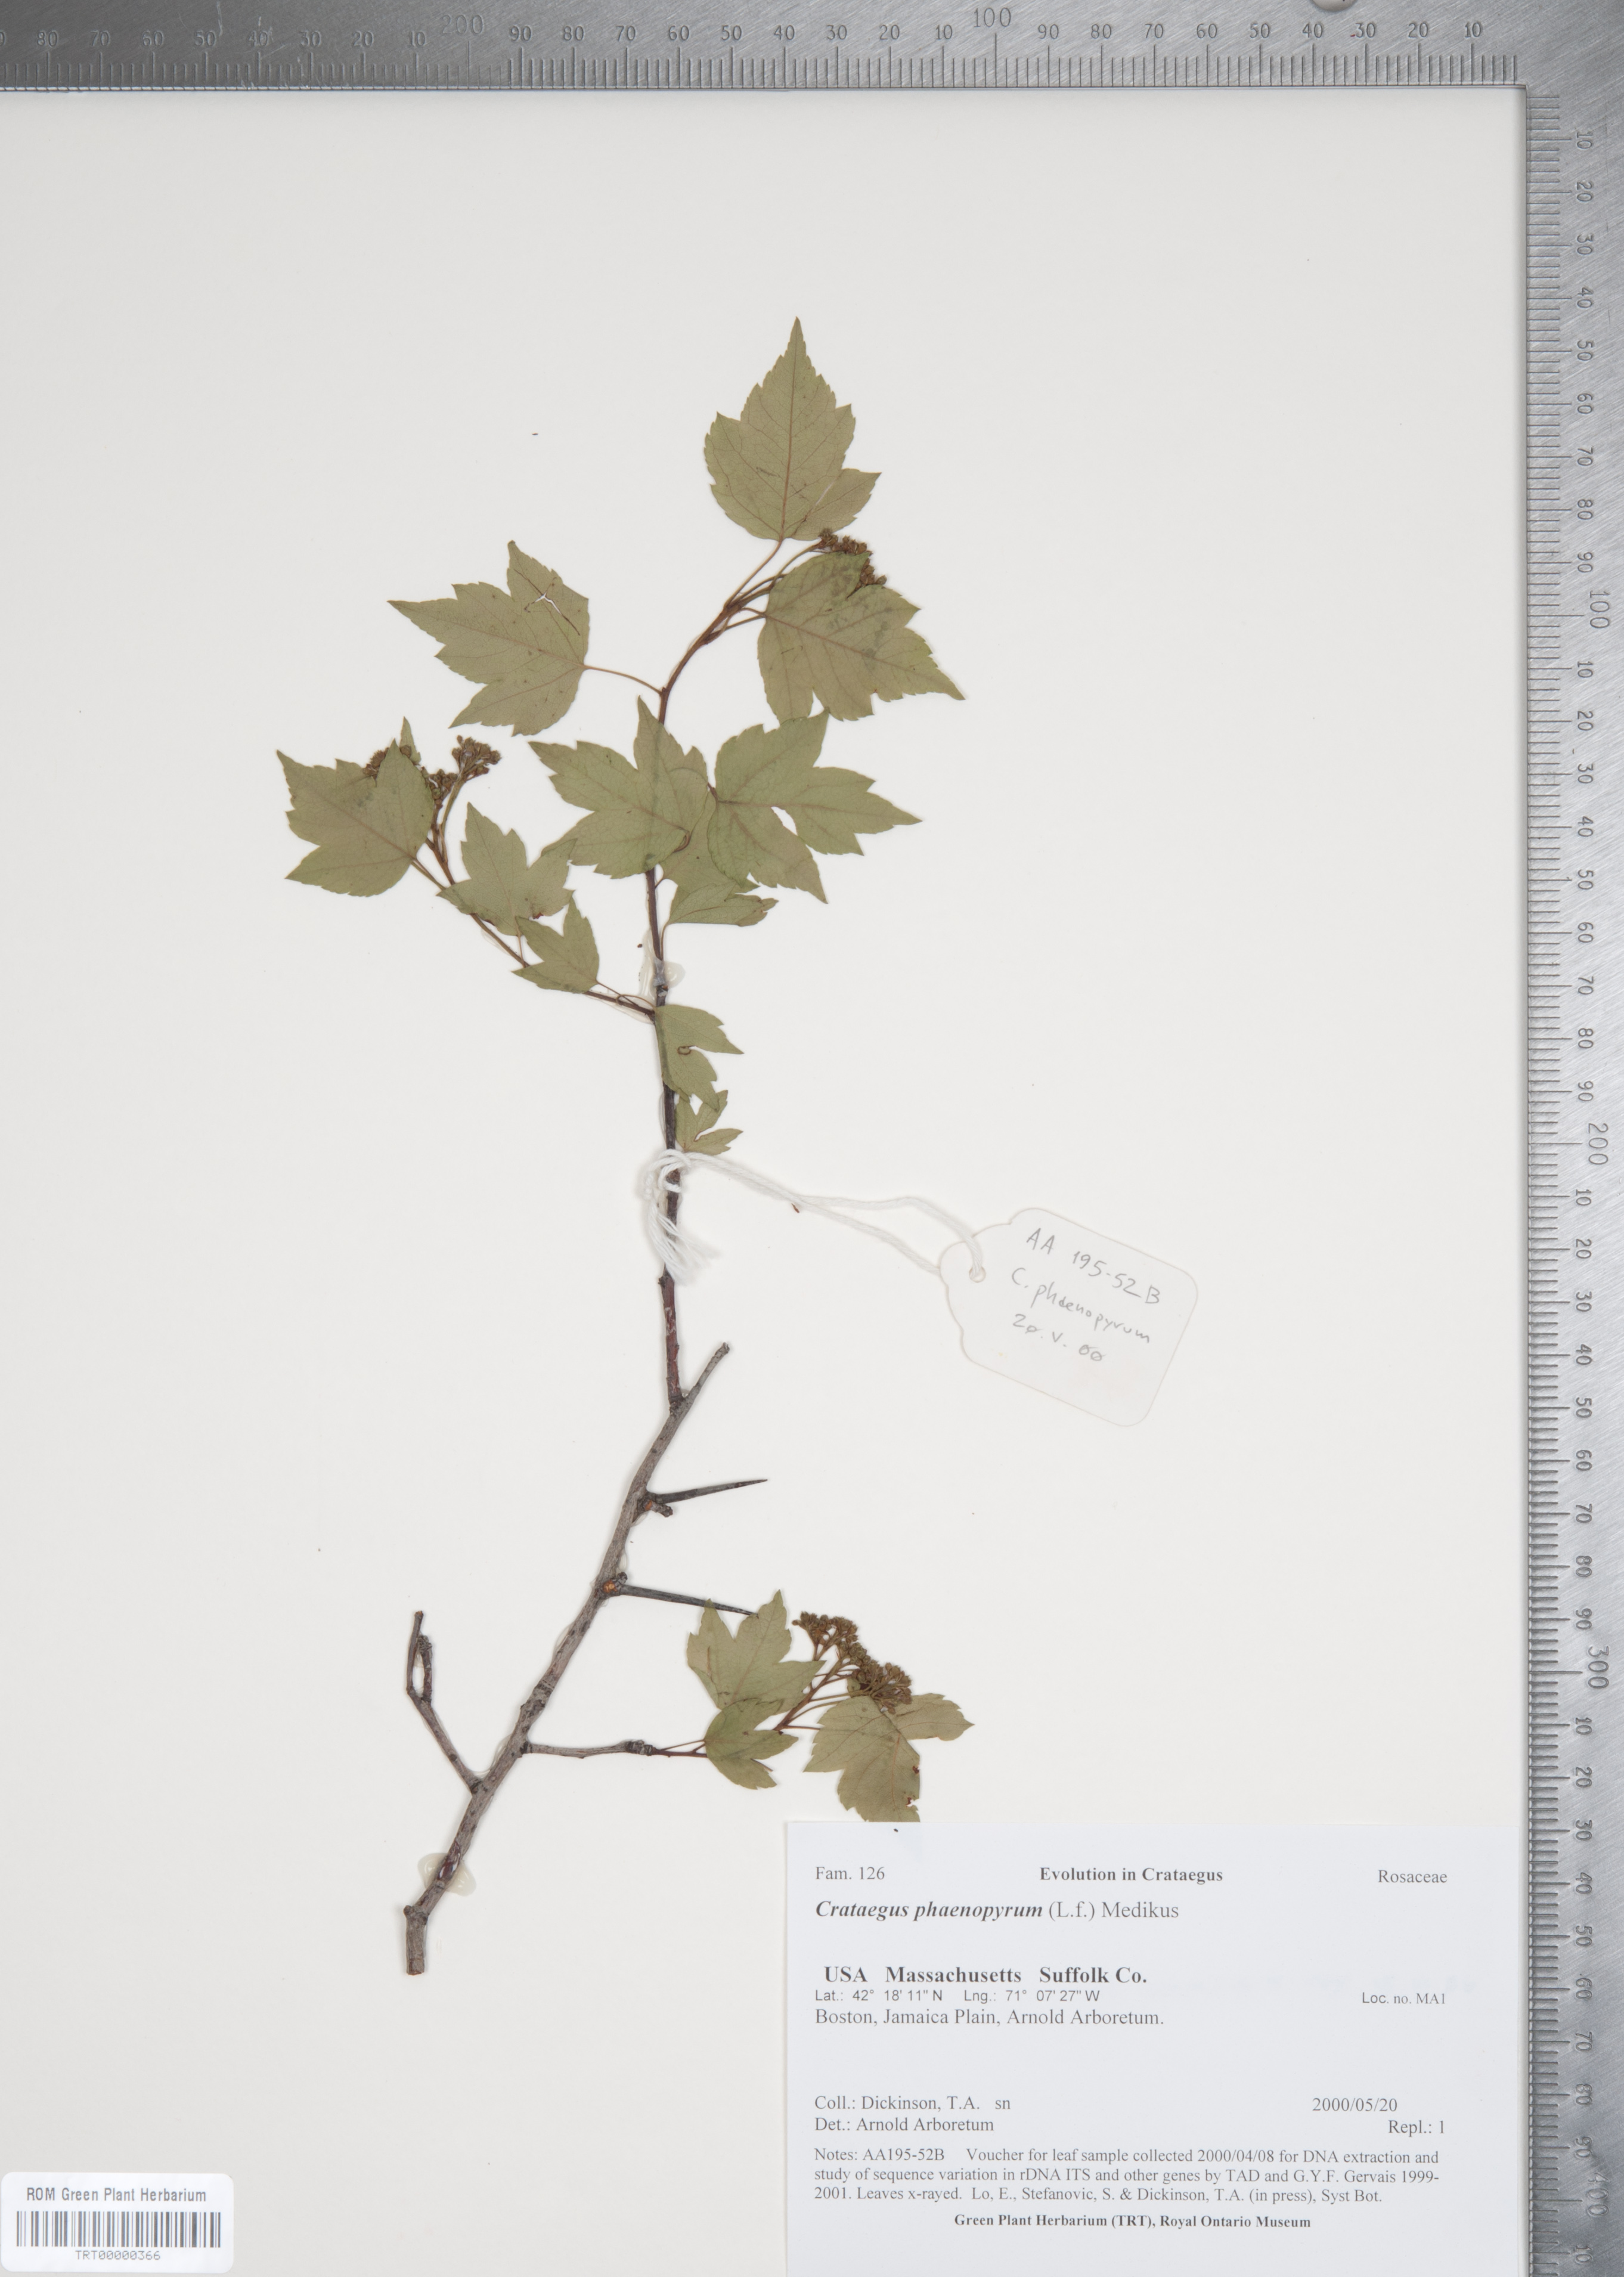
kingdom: Plantae
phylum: Tracheophyta
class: Magnoliopsida
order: Rosales
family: Rosaceae
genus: Crataegus
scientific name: Crataegus phaenopyrum
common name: Washington hawthorn
